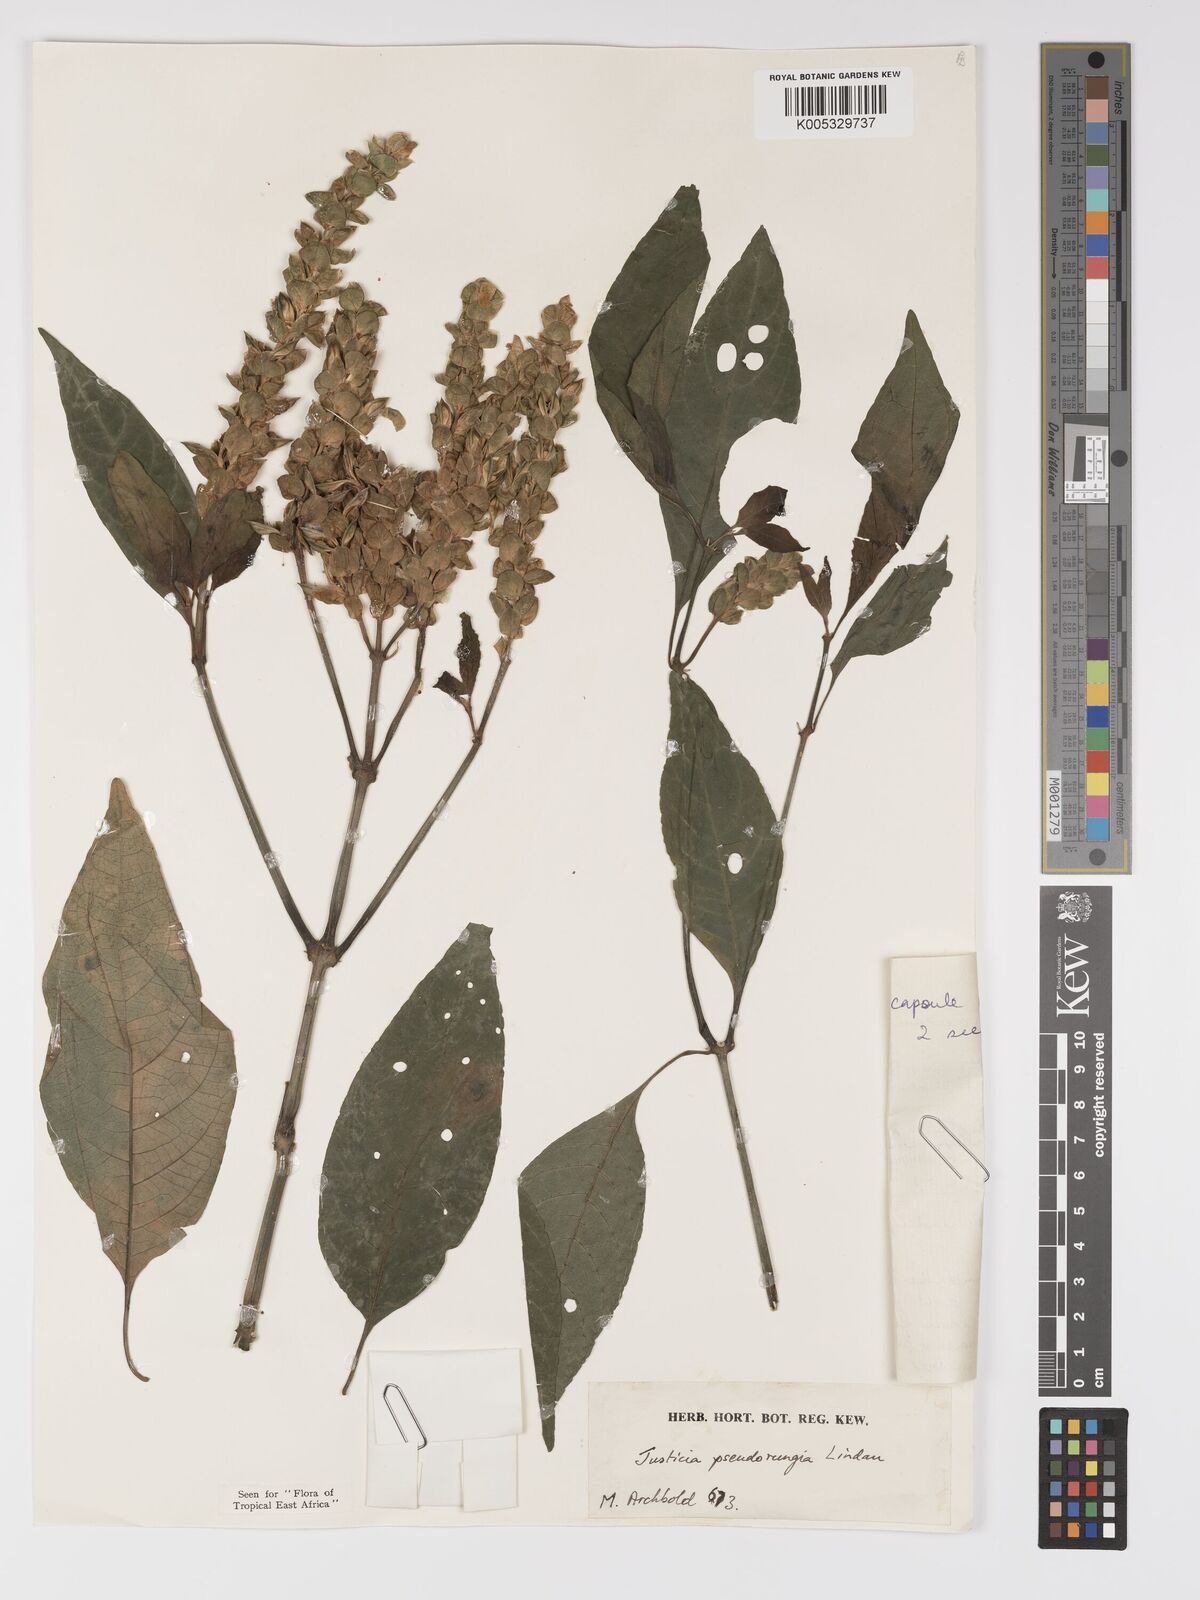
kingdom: Plantae
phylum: Tracheophyta
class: Magnoliopsida
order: Lamiales
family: Acanthaceae
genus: Justicia
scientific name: Justicia pseudorungia
